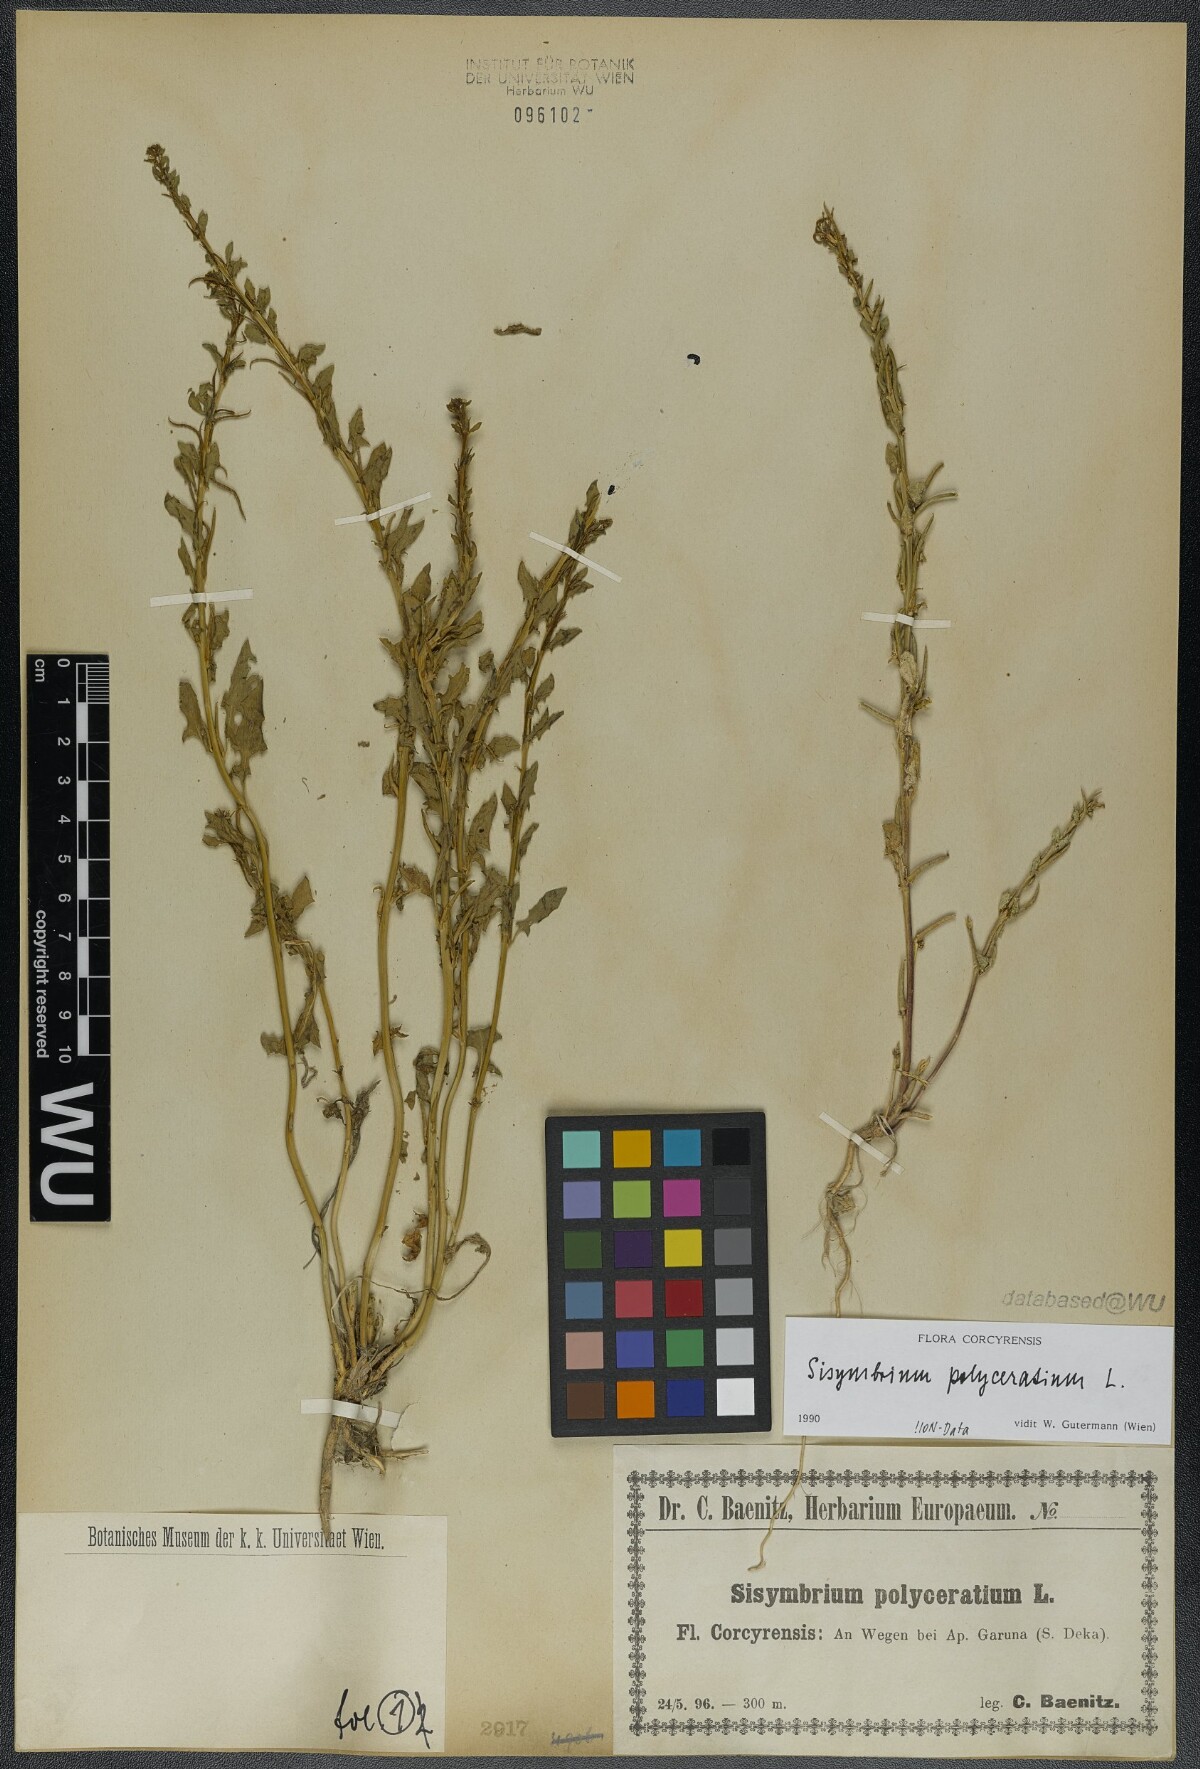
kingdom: Plantae
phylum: Tracheophyta
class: Magnoliopsida
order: Brassicales
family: Brassicaceae
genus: Sisymbrium
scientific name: Sisymbrium polyceratium
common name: Shortfruit hedgemustard
